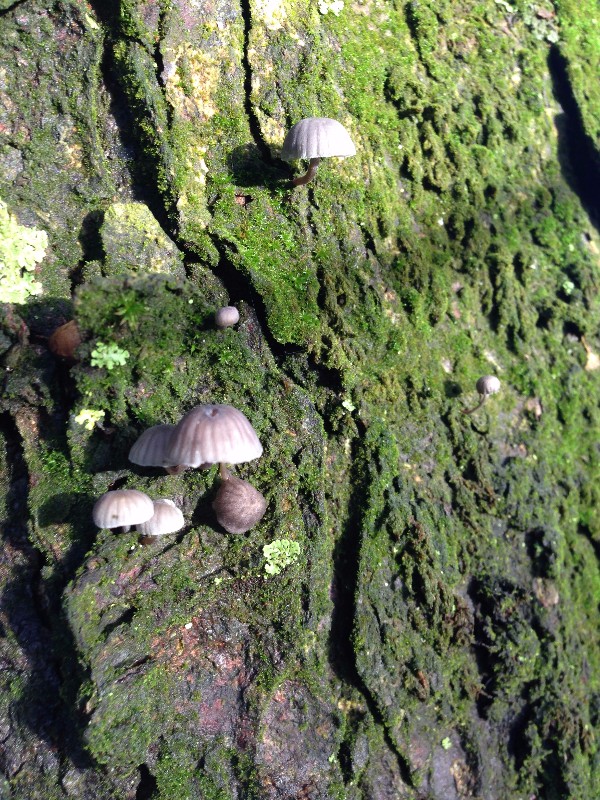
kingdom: Fungi
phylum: Basidiomycota
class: Agaricomycetes
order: Agaricales
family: Mycenaceae
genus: Mycena
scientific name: Mycena meliigena
